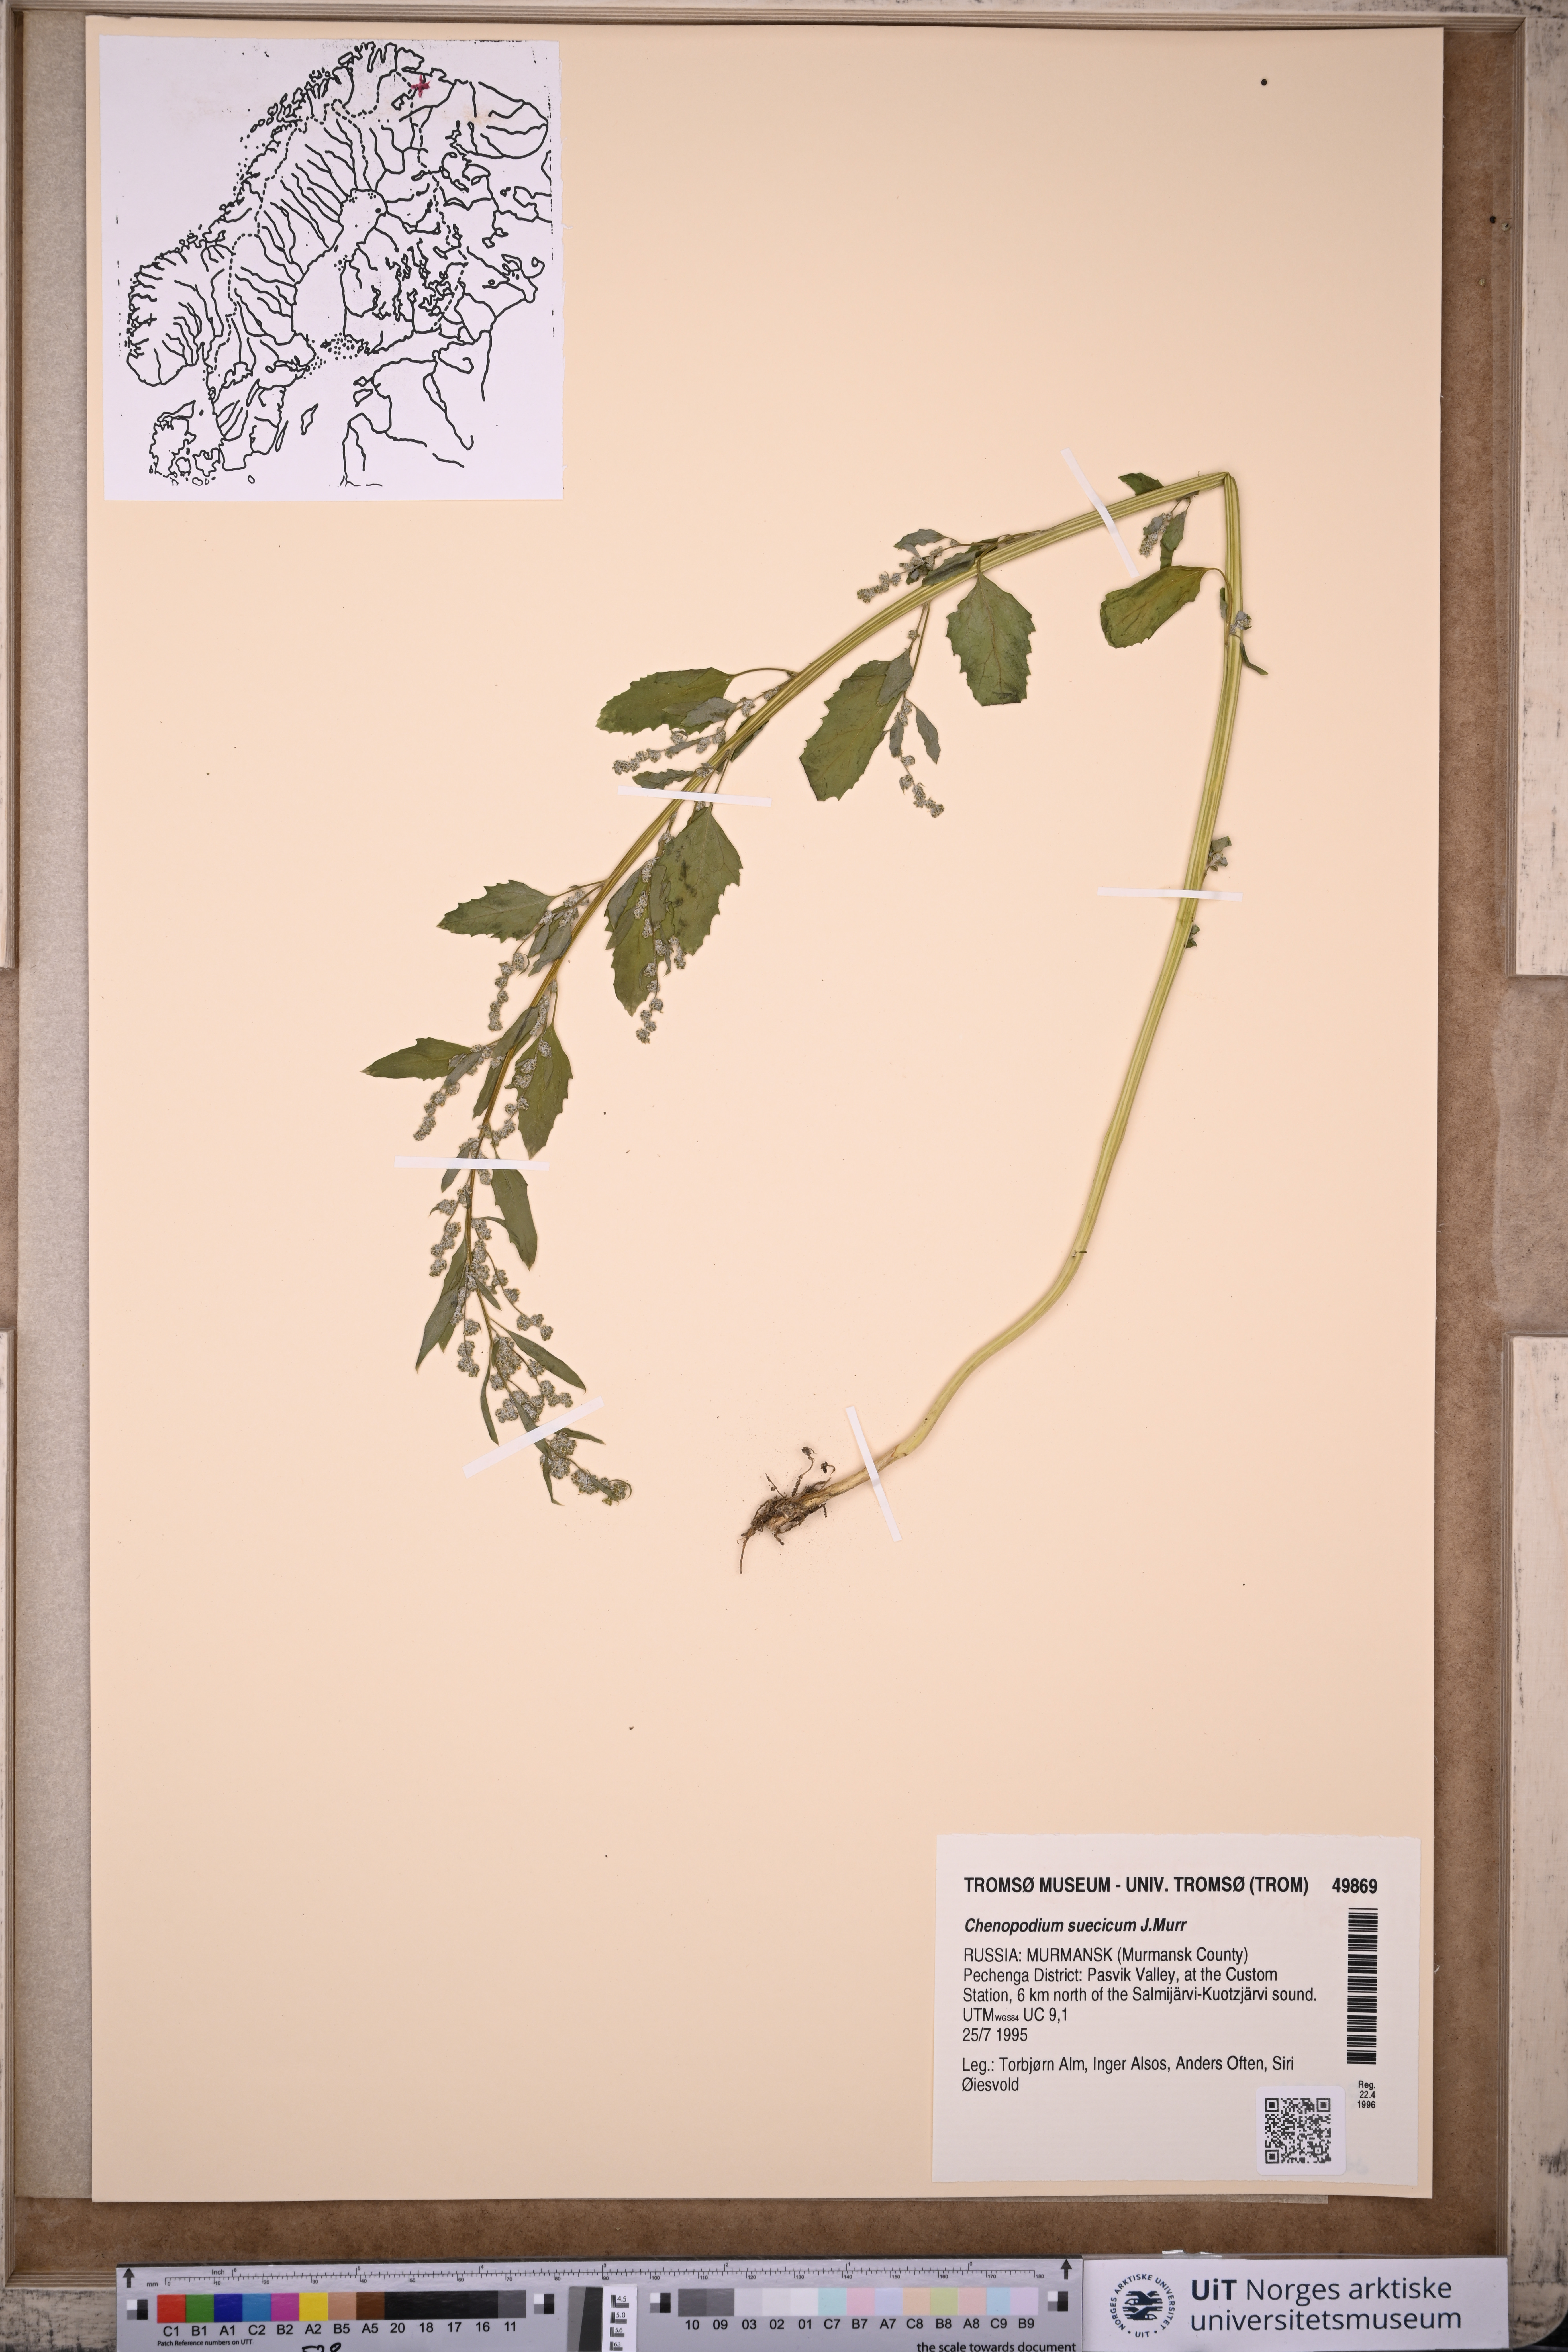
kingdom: Plantae
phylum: Tracheophyta
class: Magnoliopsida
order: Caryophyllales
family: Amaranthaceae
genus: Chenopodium
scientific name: Chenopodium suecicum
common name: Swedish goosefoot
